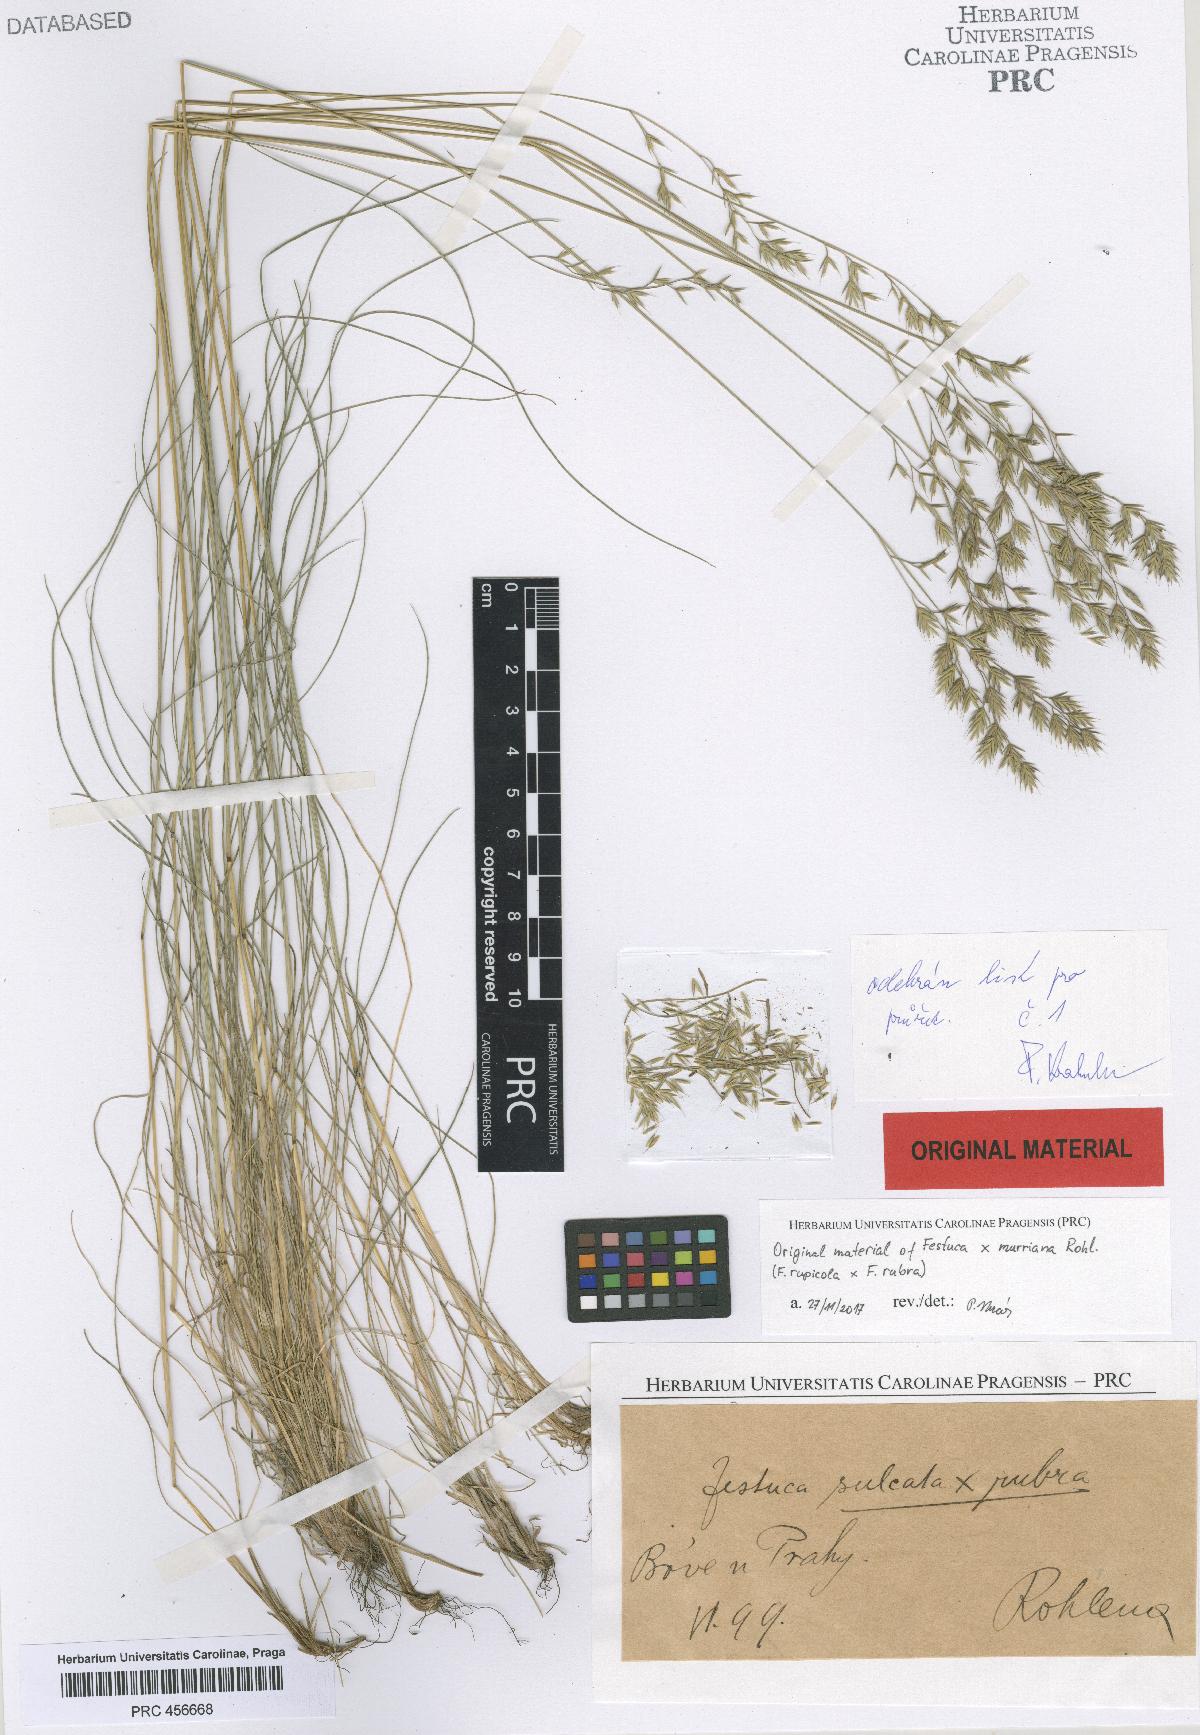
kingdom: Plantae
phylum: Tracheophyta
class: Liliopsida
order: Poales
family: Poaceae
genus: Festuca
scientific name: Festuca murriana
